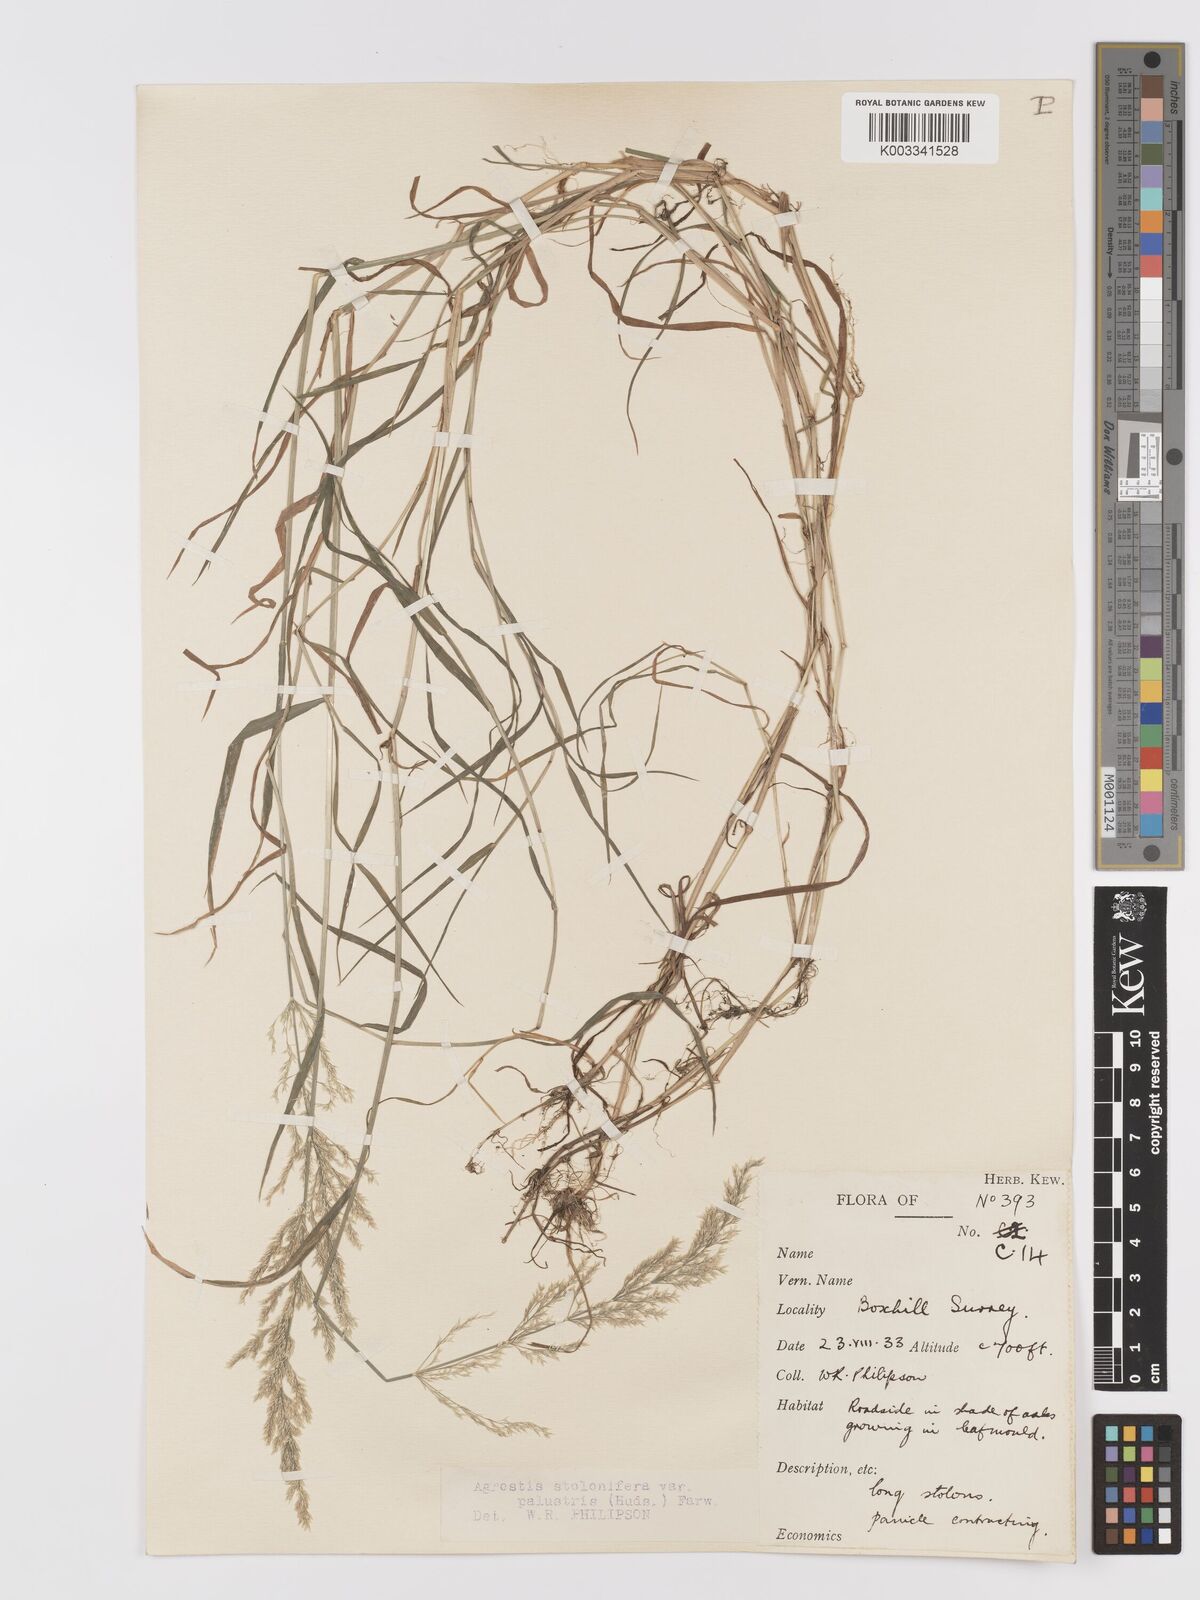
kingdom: Plantae
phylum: Tracheophyta
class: Liliopsida
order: Poales
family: Poaceae
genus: Agrostis
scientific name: Agrostis stolonifera
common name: Creeping bentgrass
